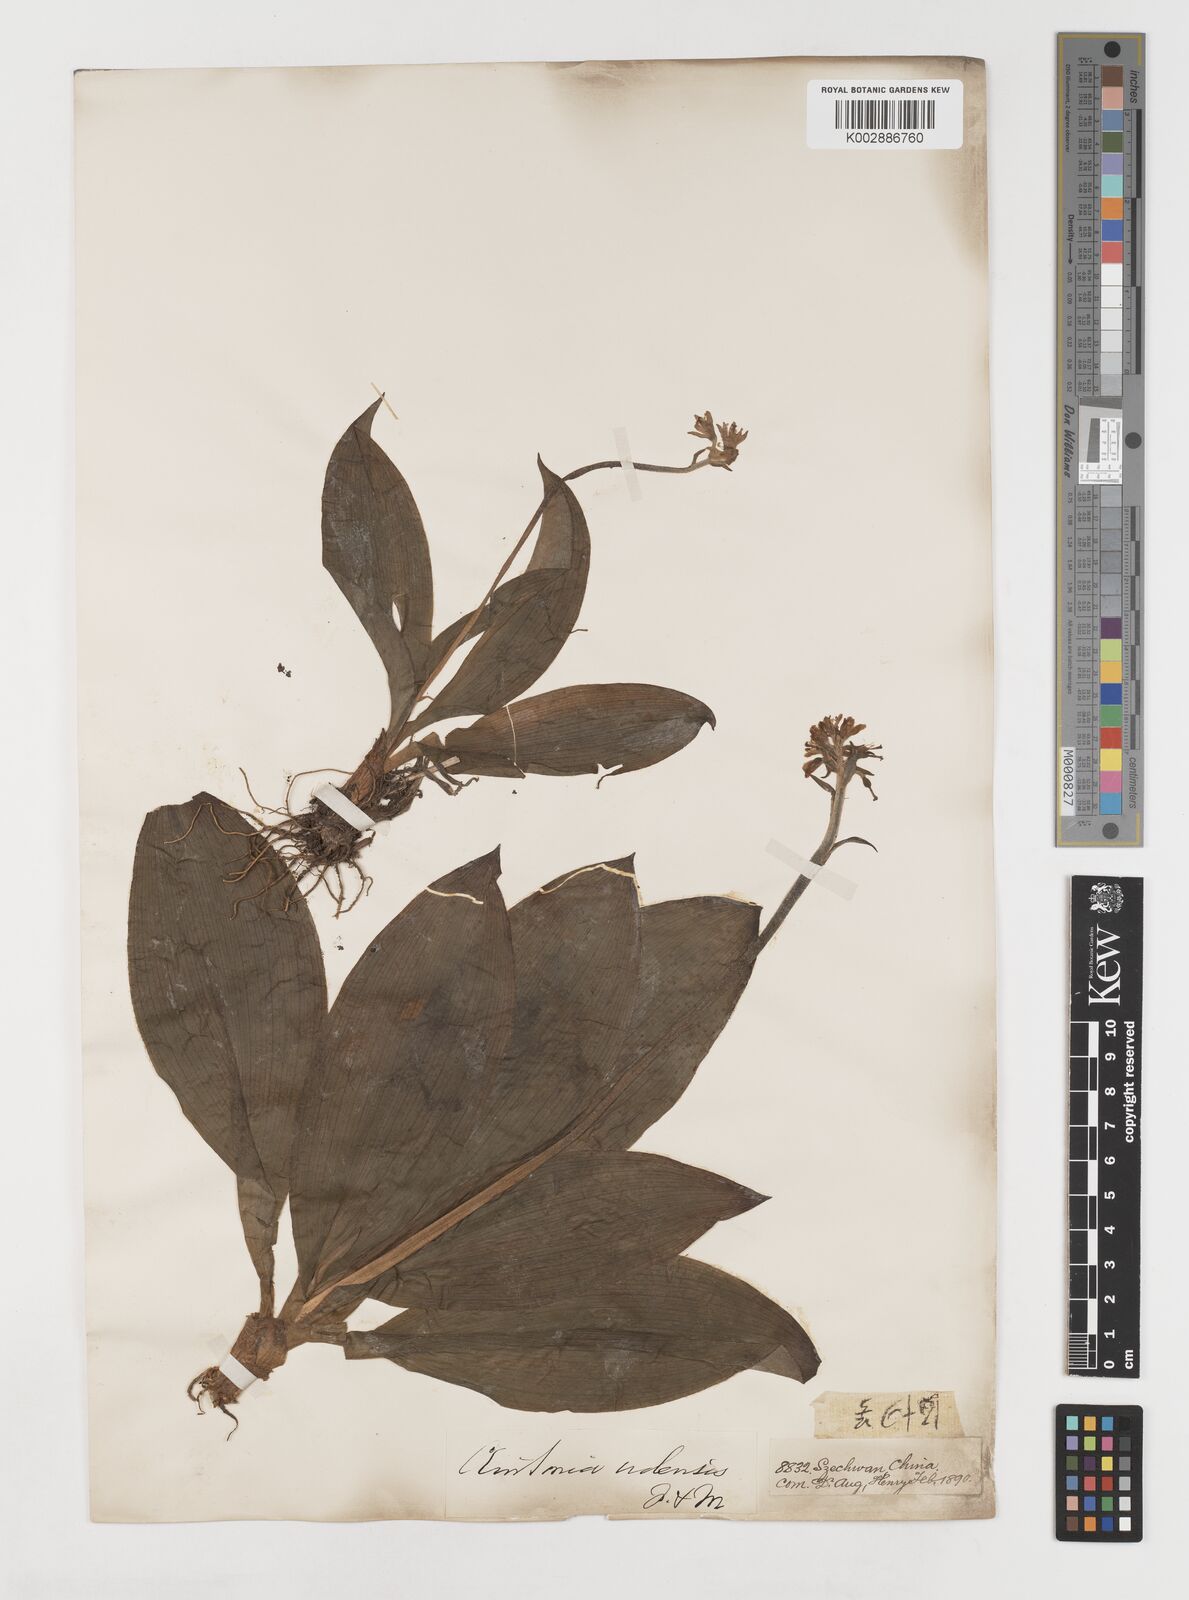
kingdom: Plantae
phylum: Tracheophyta
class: Liliopsida
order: Liliales
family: Liliaceae
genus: Clintonia
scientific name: Clintonia udensis
